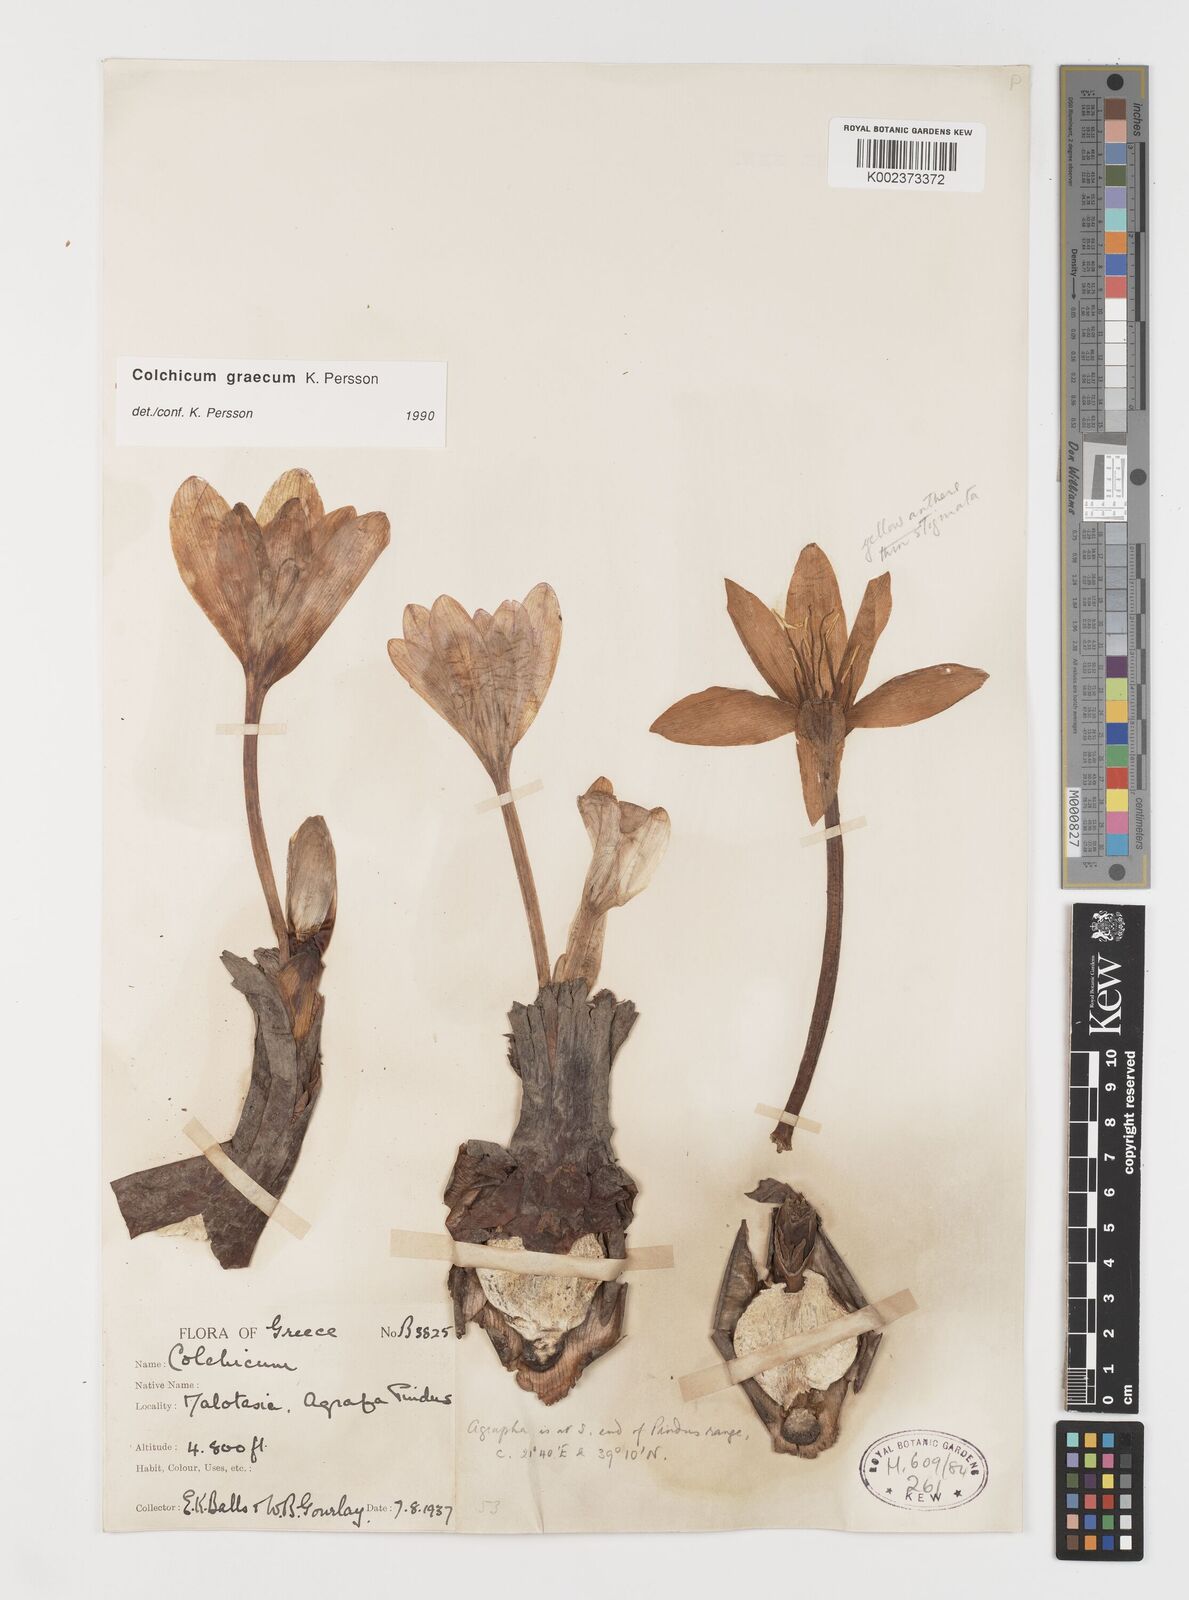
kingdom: Plantae
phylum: Tracheophyta
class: Liliopsida
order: Liliales
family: Colchicaceae
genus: Colchicum
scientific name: Colchicum graecum
